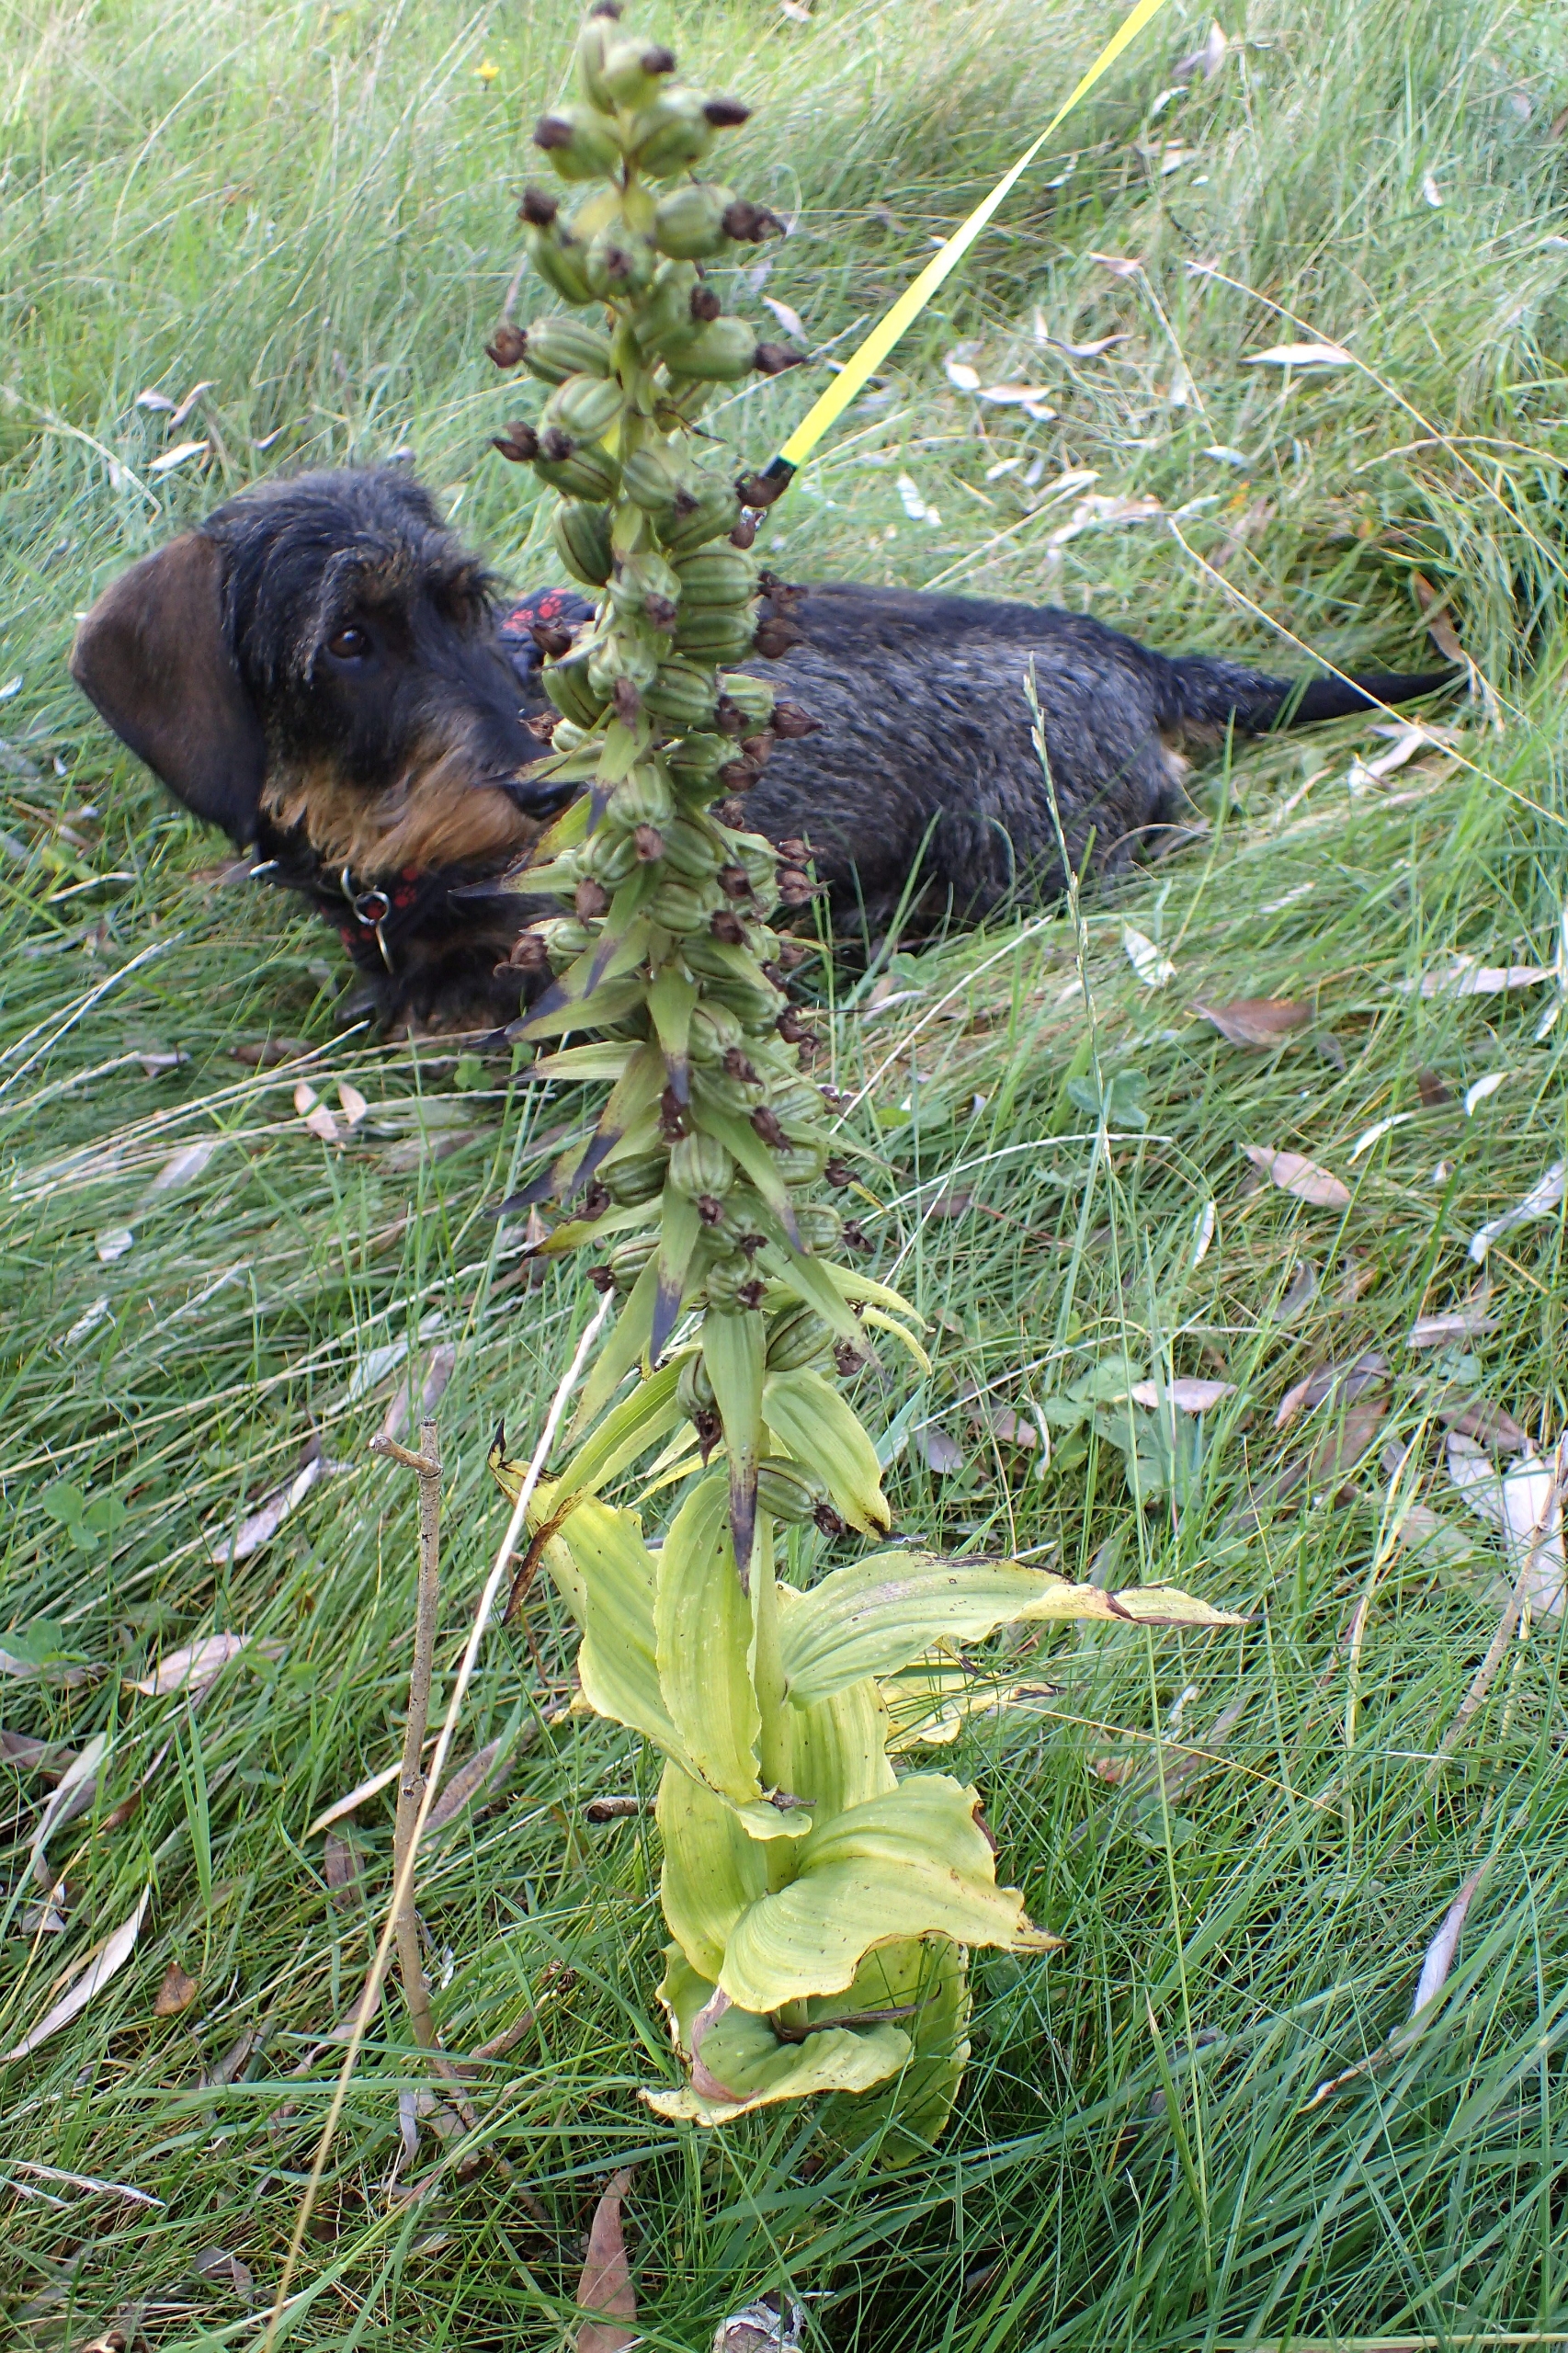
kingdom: Plantae
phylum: Tracheophyta
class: Liliopsida
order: Asparagales
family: Orchidaceae
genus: Epipactis
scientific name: Epipactis helleborine
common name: Skov-hullæbe
